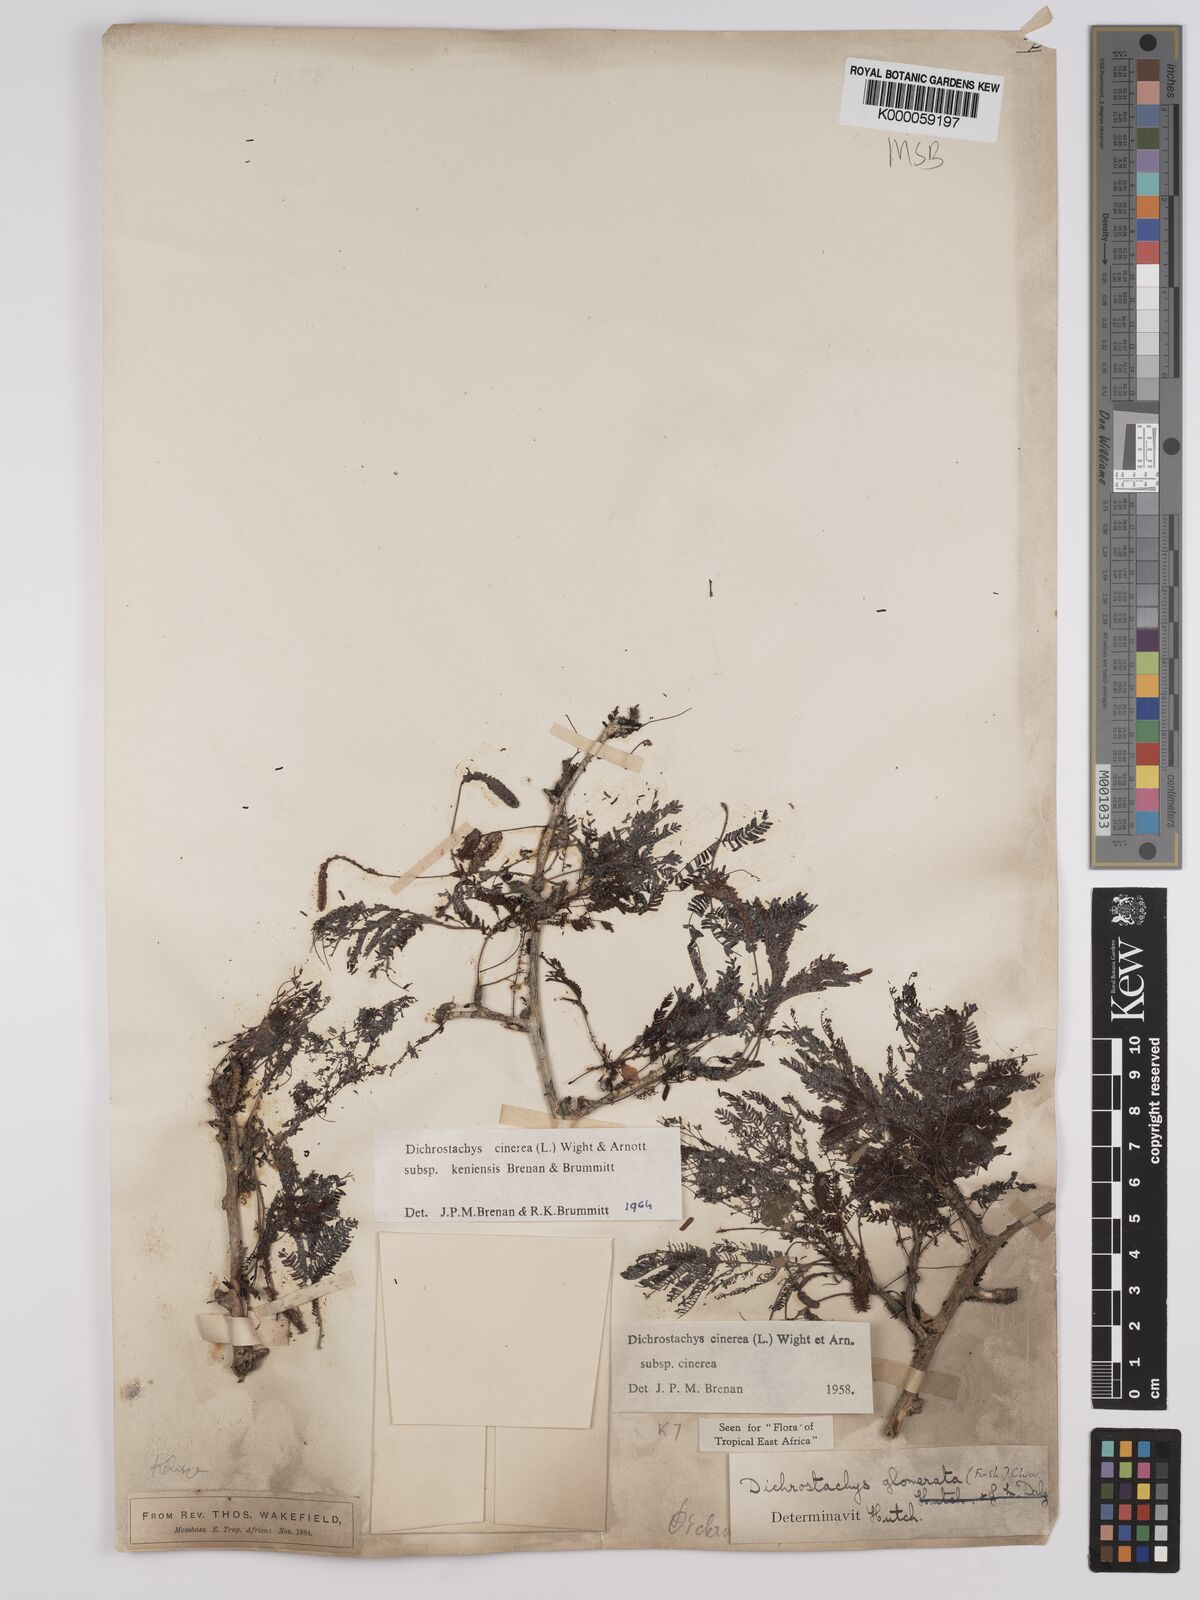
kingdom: Plantae
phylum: Tracheophyta
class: Magnoliopsida
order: Fabales
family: Fabaceae
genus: Dichrostachys
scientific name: Dichrostachys cinerea
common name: Sicklebush
